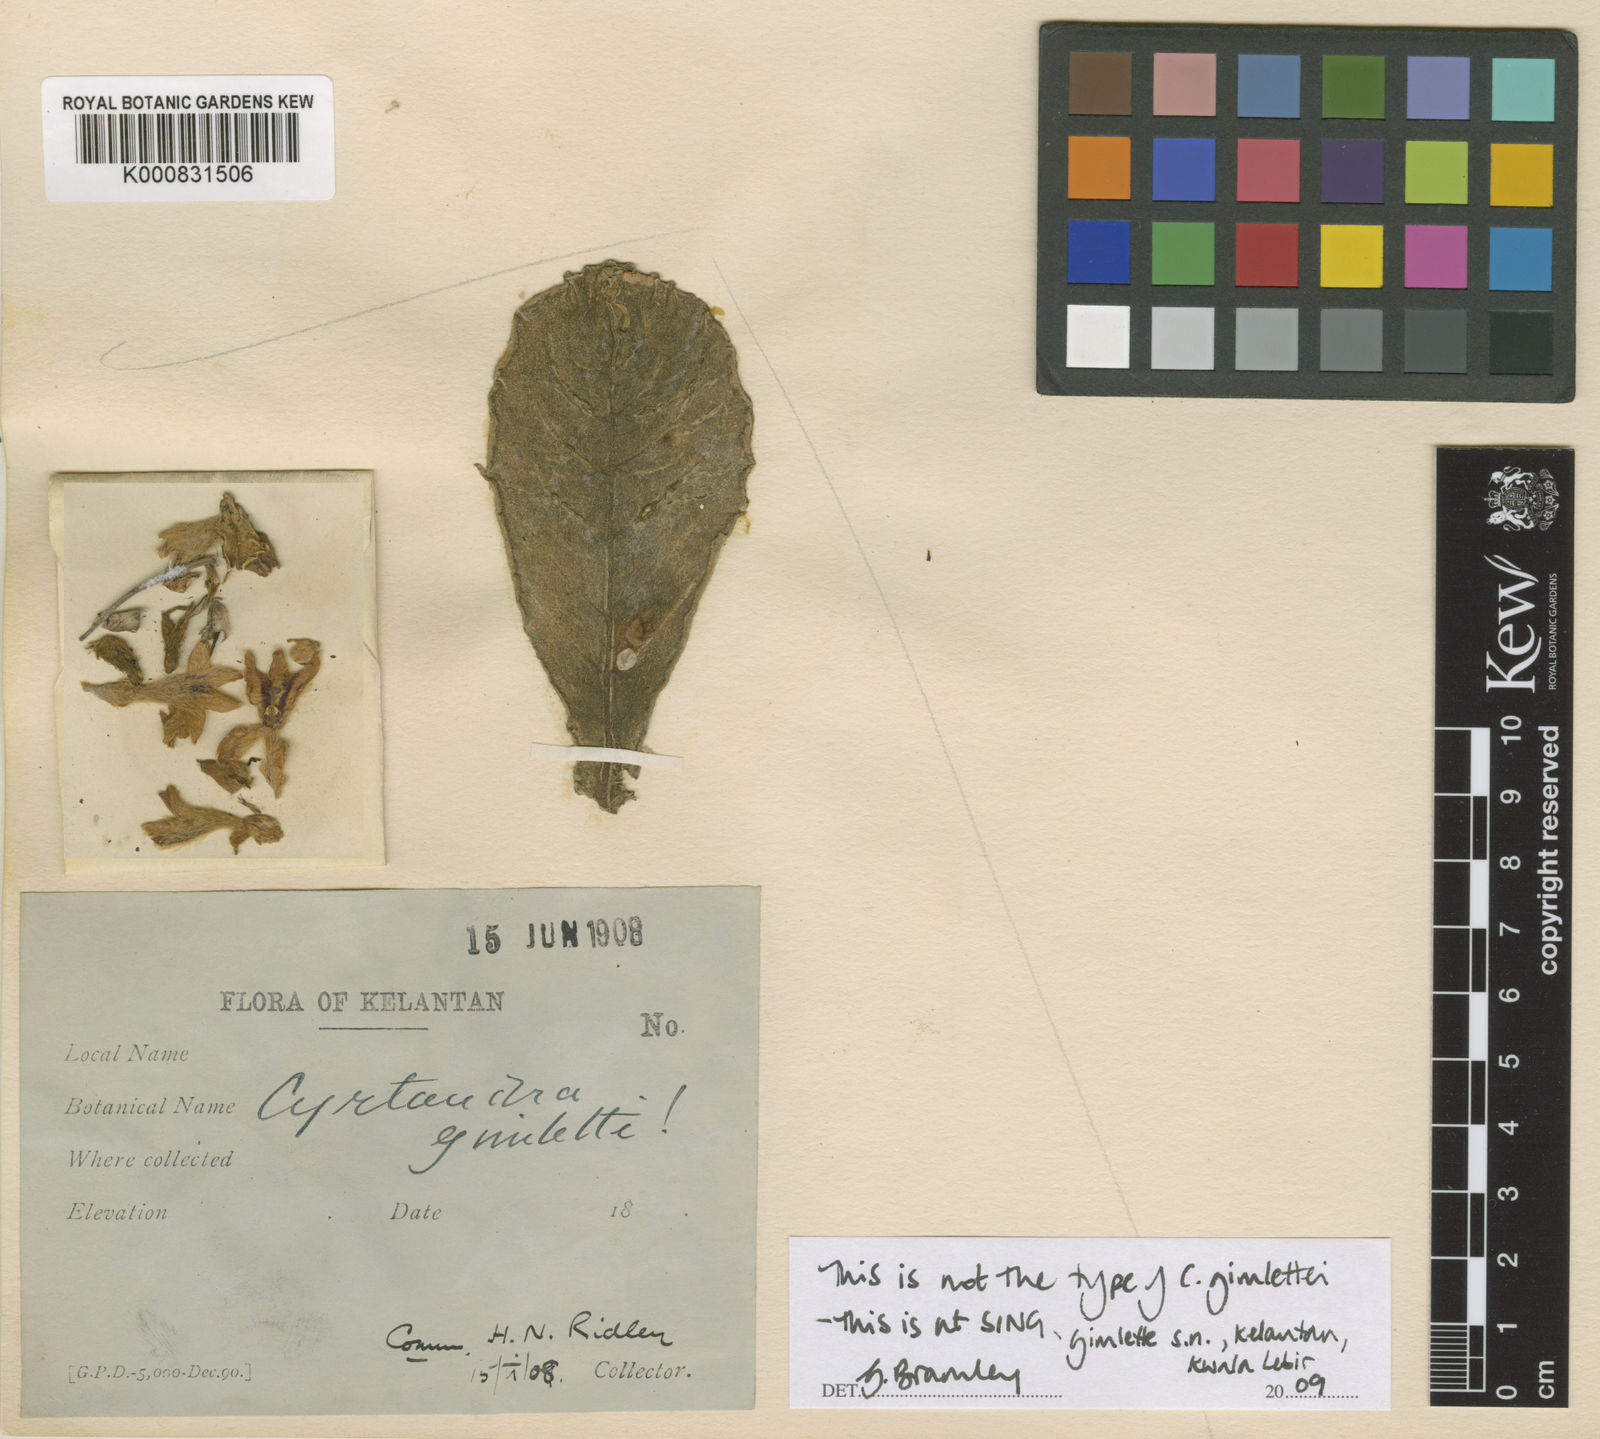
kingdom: Plantae
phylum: Tracheophyta
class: Magnoliopsida
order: Lamiales
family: Gesneriaceae
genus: Cyrtandra
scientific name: Cyrtandra gimlettii
